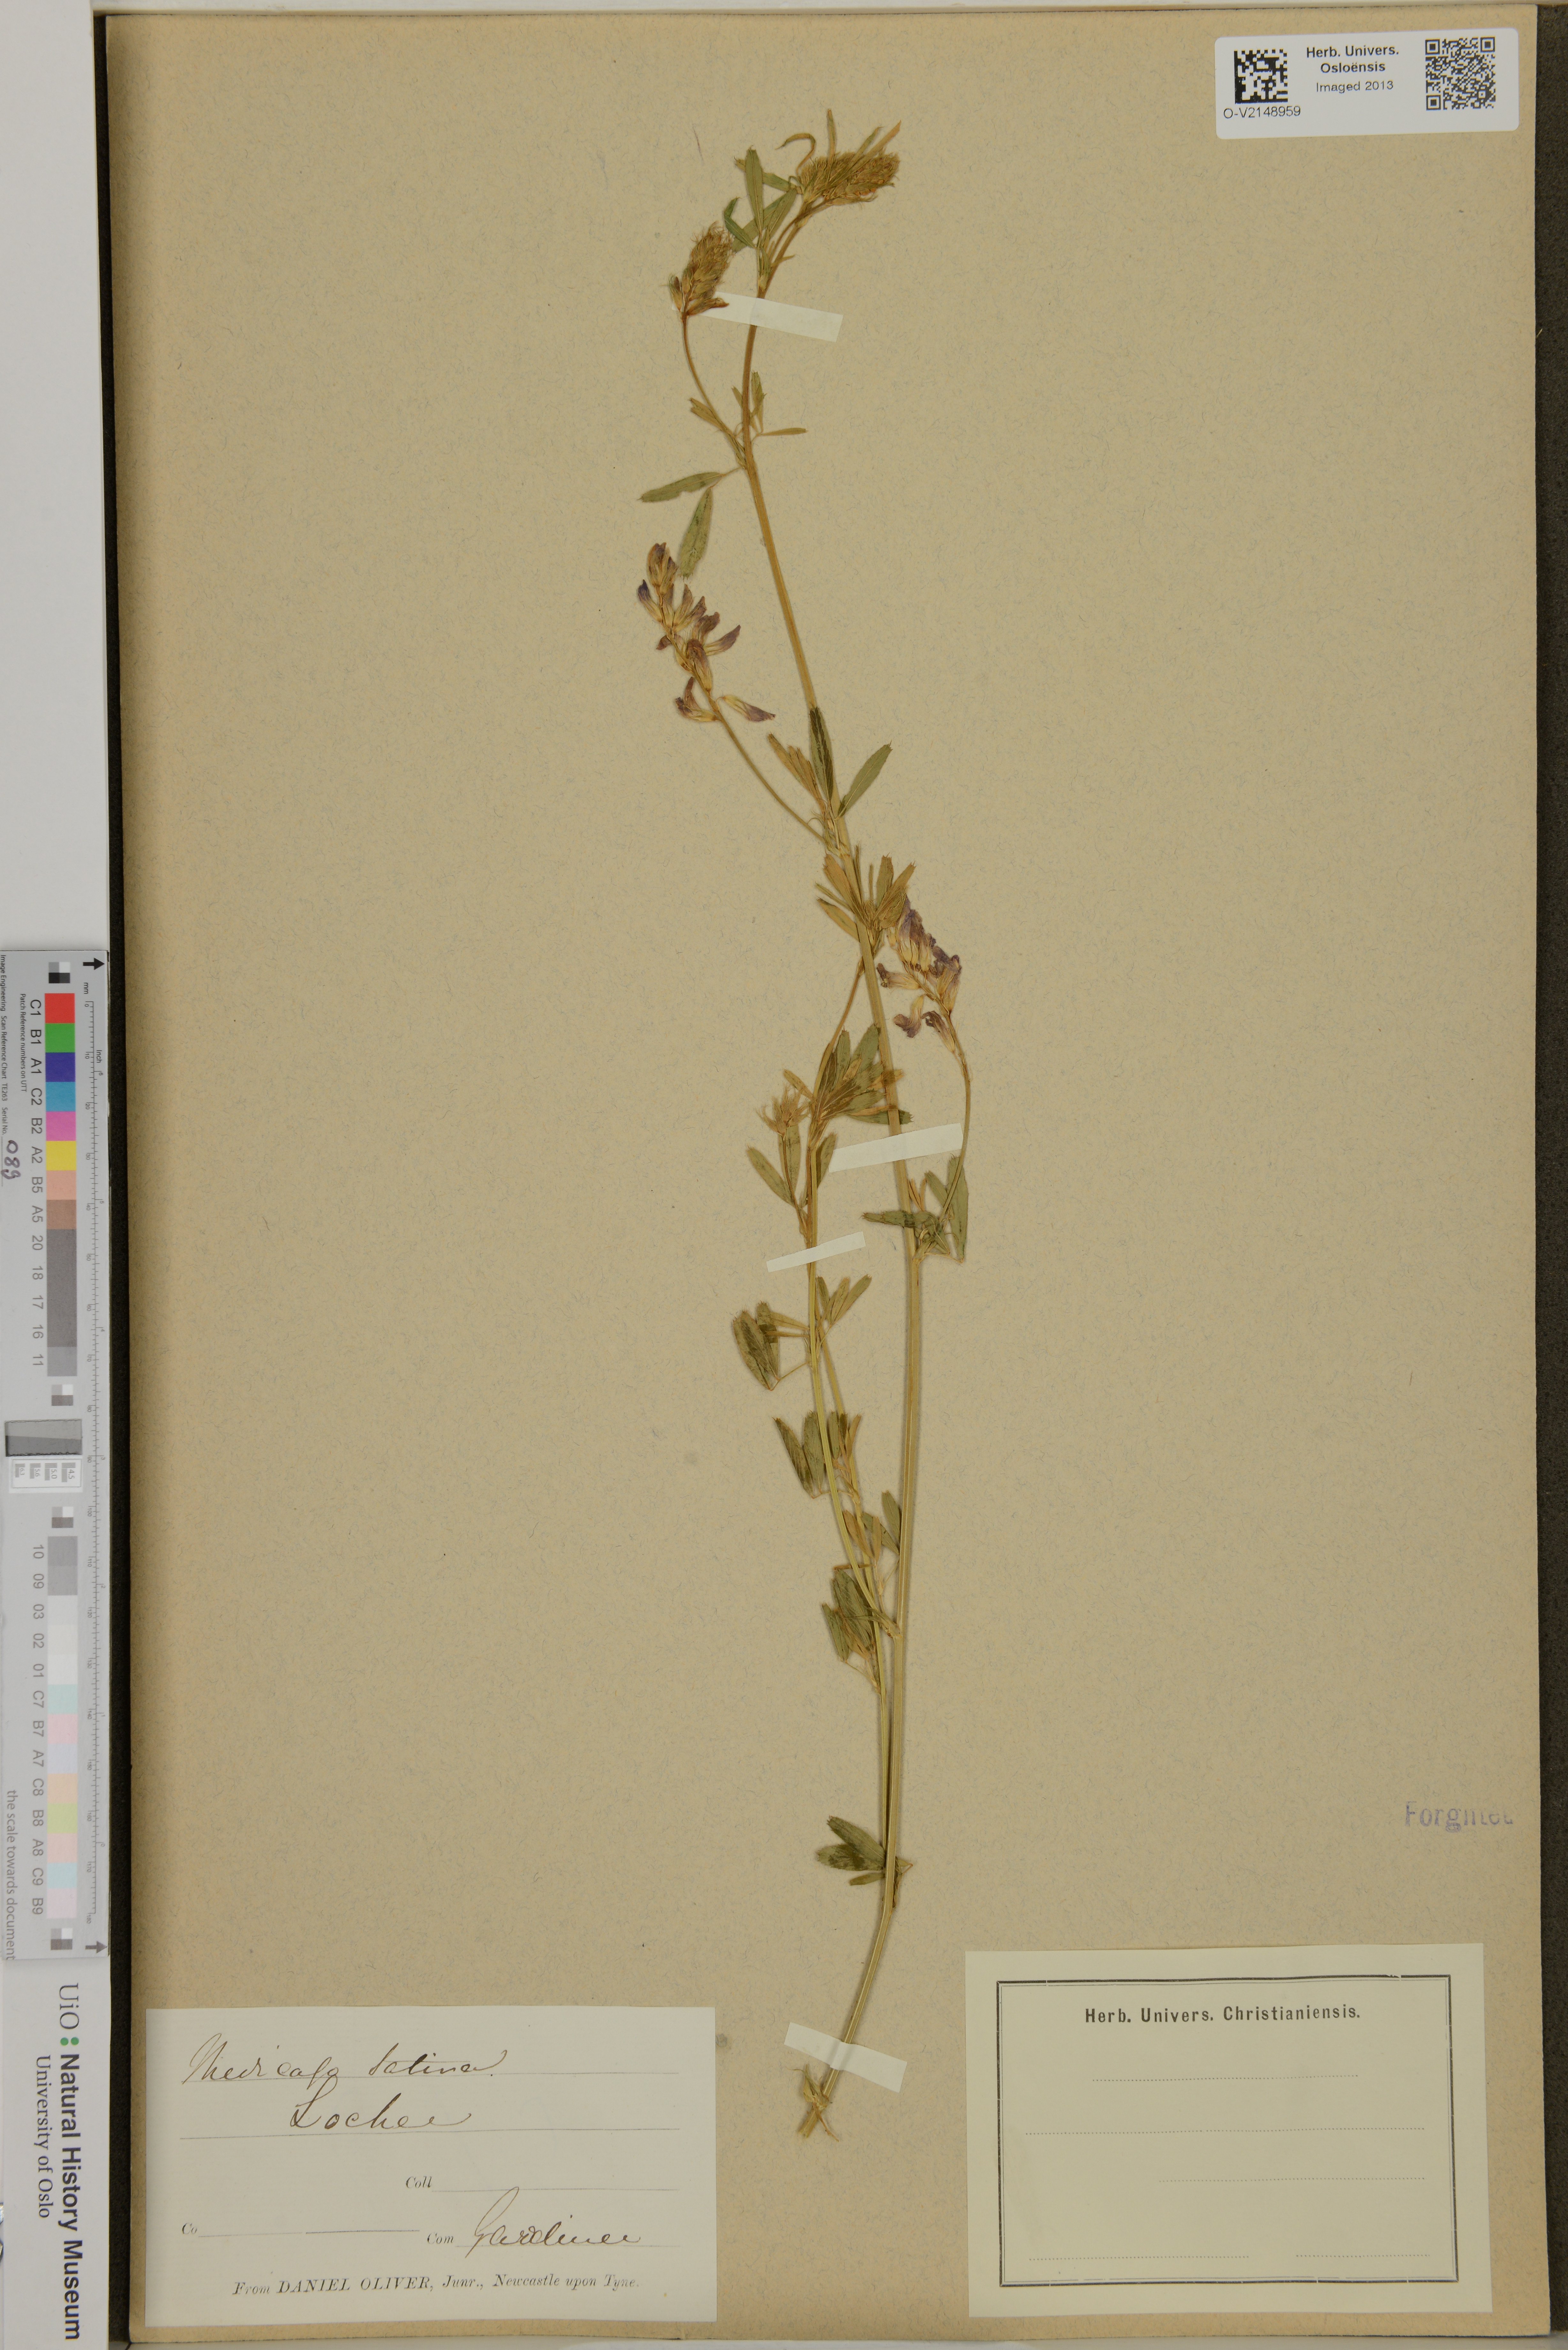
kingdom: Plantae
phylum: Tracheophyta
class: Magnoliopsida
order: Fabales
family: Fabaceae
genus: Medicago
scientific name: Medicago sativa
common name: Alfalfa
